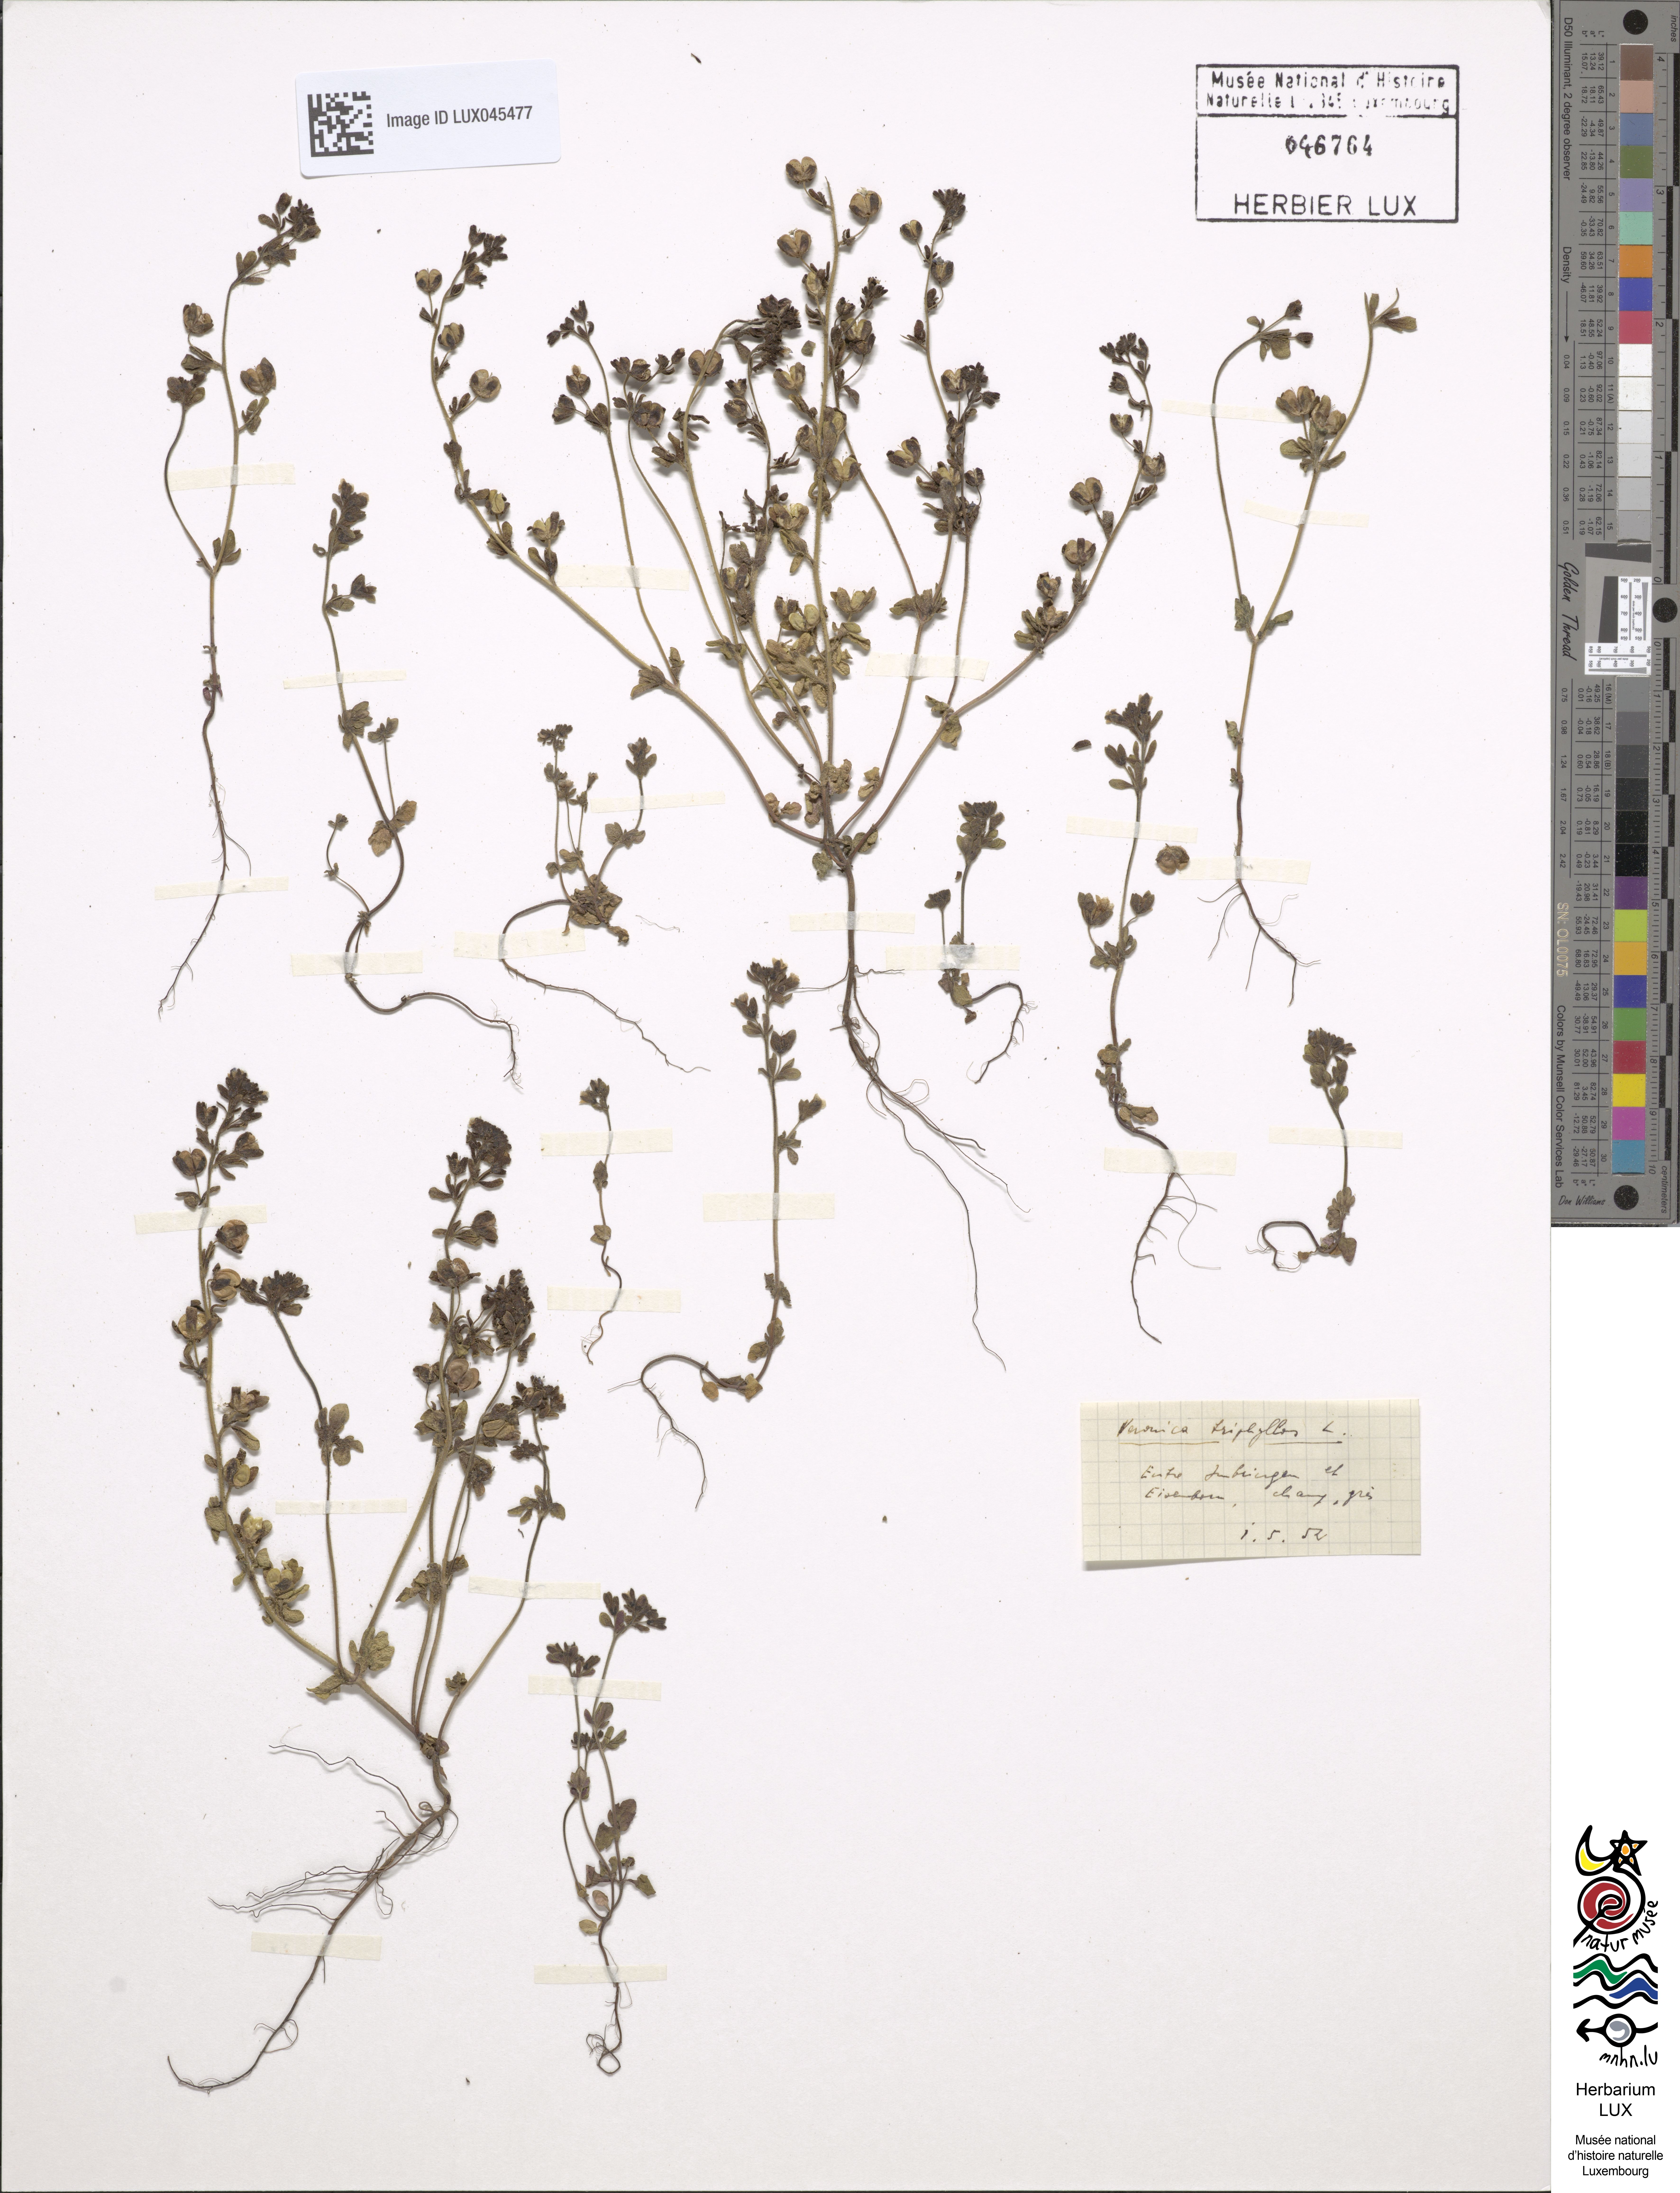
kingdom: Plantae
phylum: Tracheophyta
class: Magnoliopsida
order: Lamiales
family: Plantaginaceae
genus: Veronica
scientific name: Veronica triphyllos
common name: Fingered speedwell
